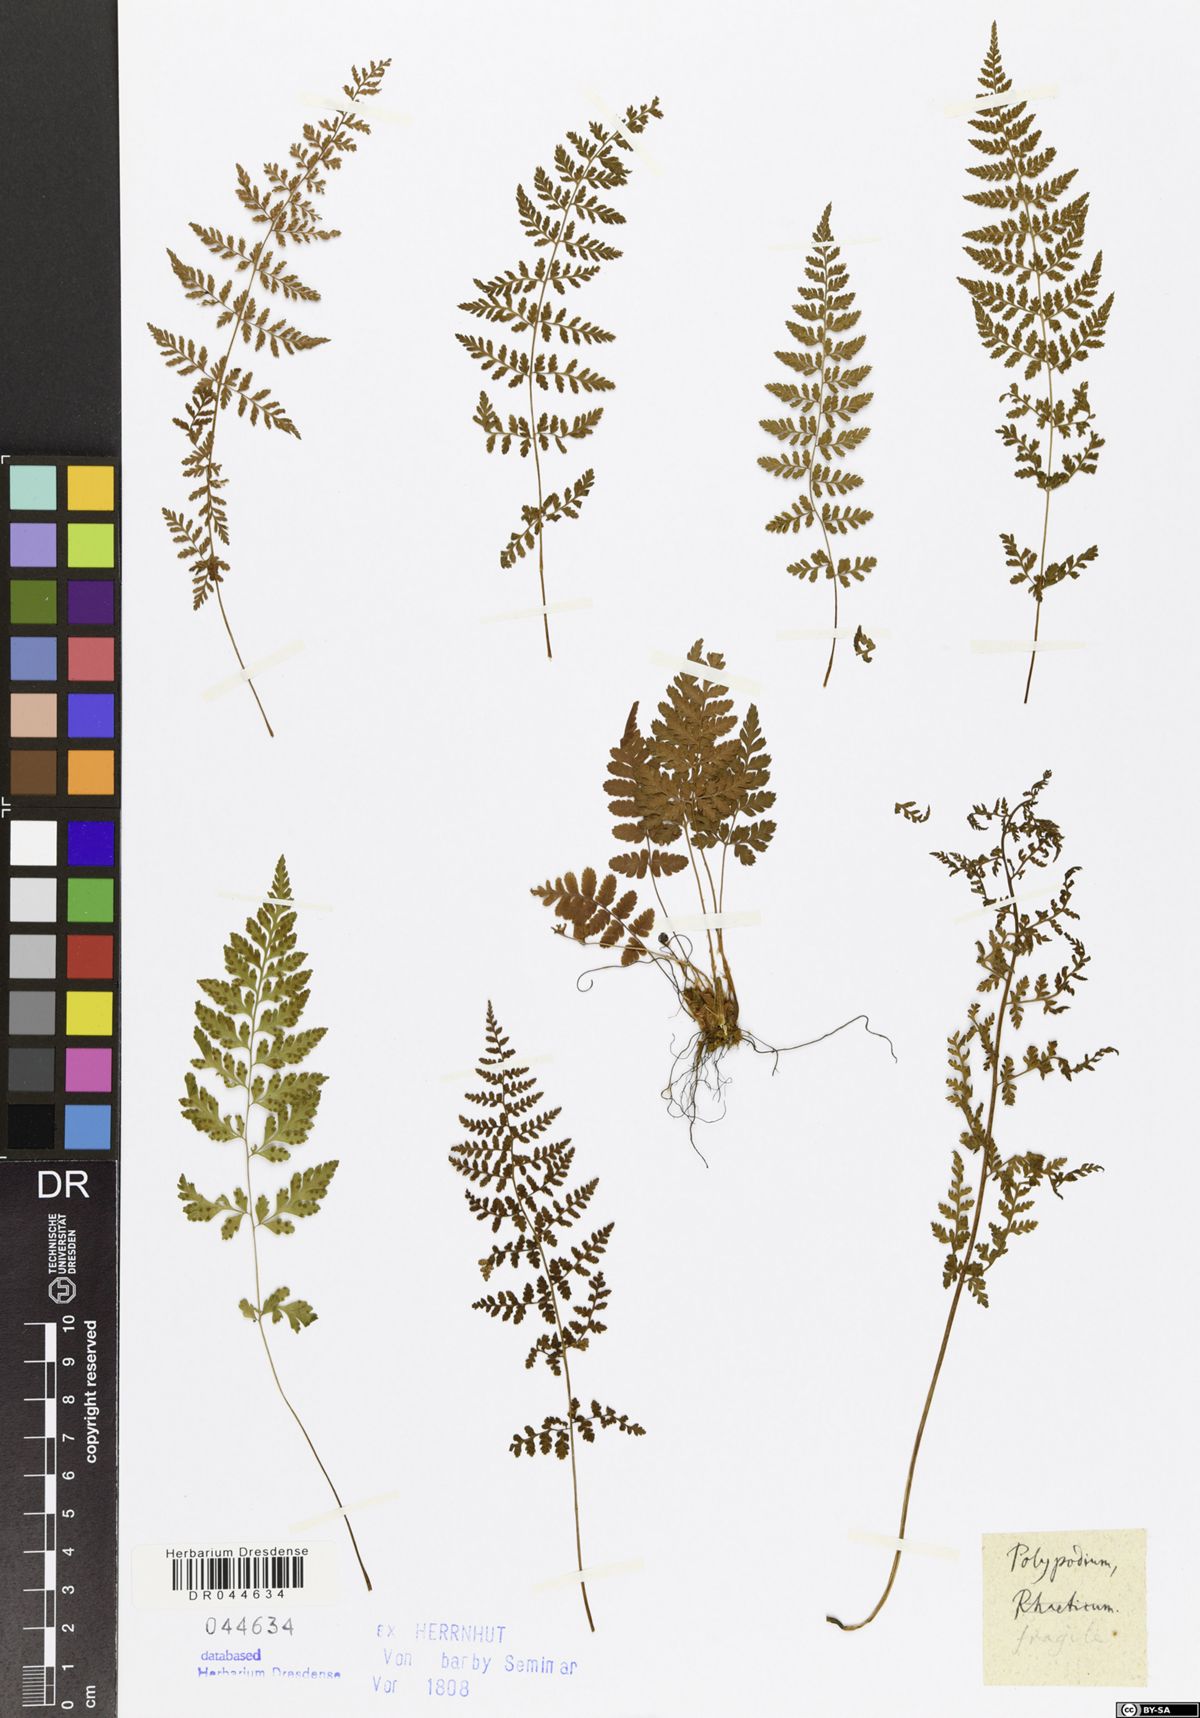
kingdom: Plantae
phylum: Tracheophyta
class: Polypodiopsida
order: Polypodiales
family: Cystopteridaceae
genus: Cystopteris
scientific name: Cystopteris fragilis
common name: Brittle bladder fern
